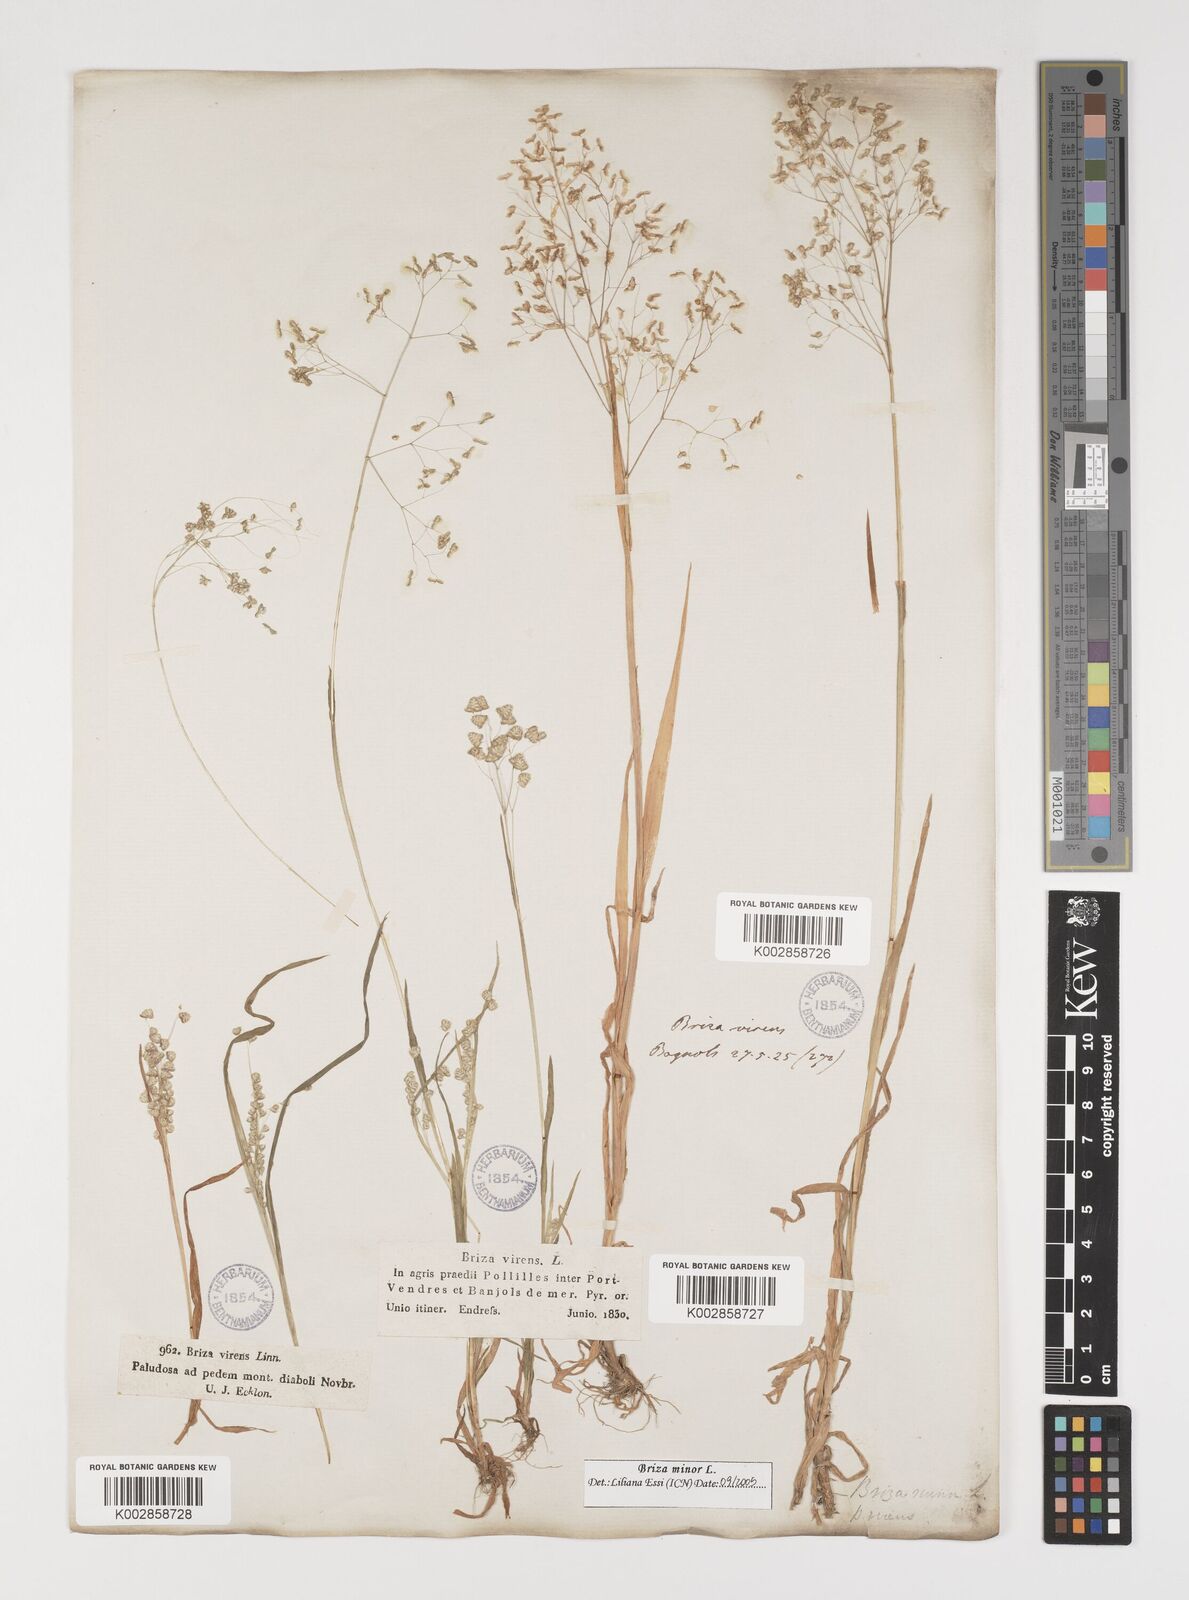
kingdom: Plantae
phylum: Tracheophyta
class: Liliopsida
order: Poales
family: Poaceae
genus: Briza
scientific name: Briza minor
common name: Lesser quaking-grass
